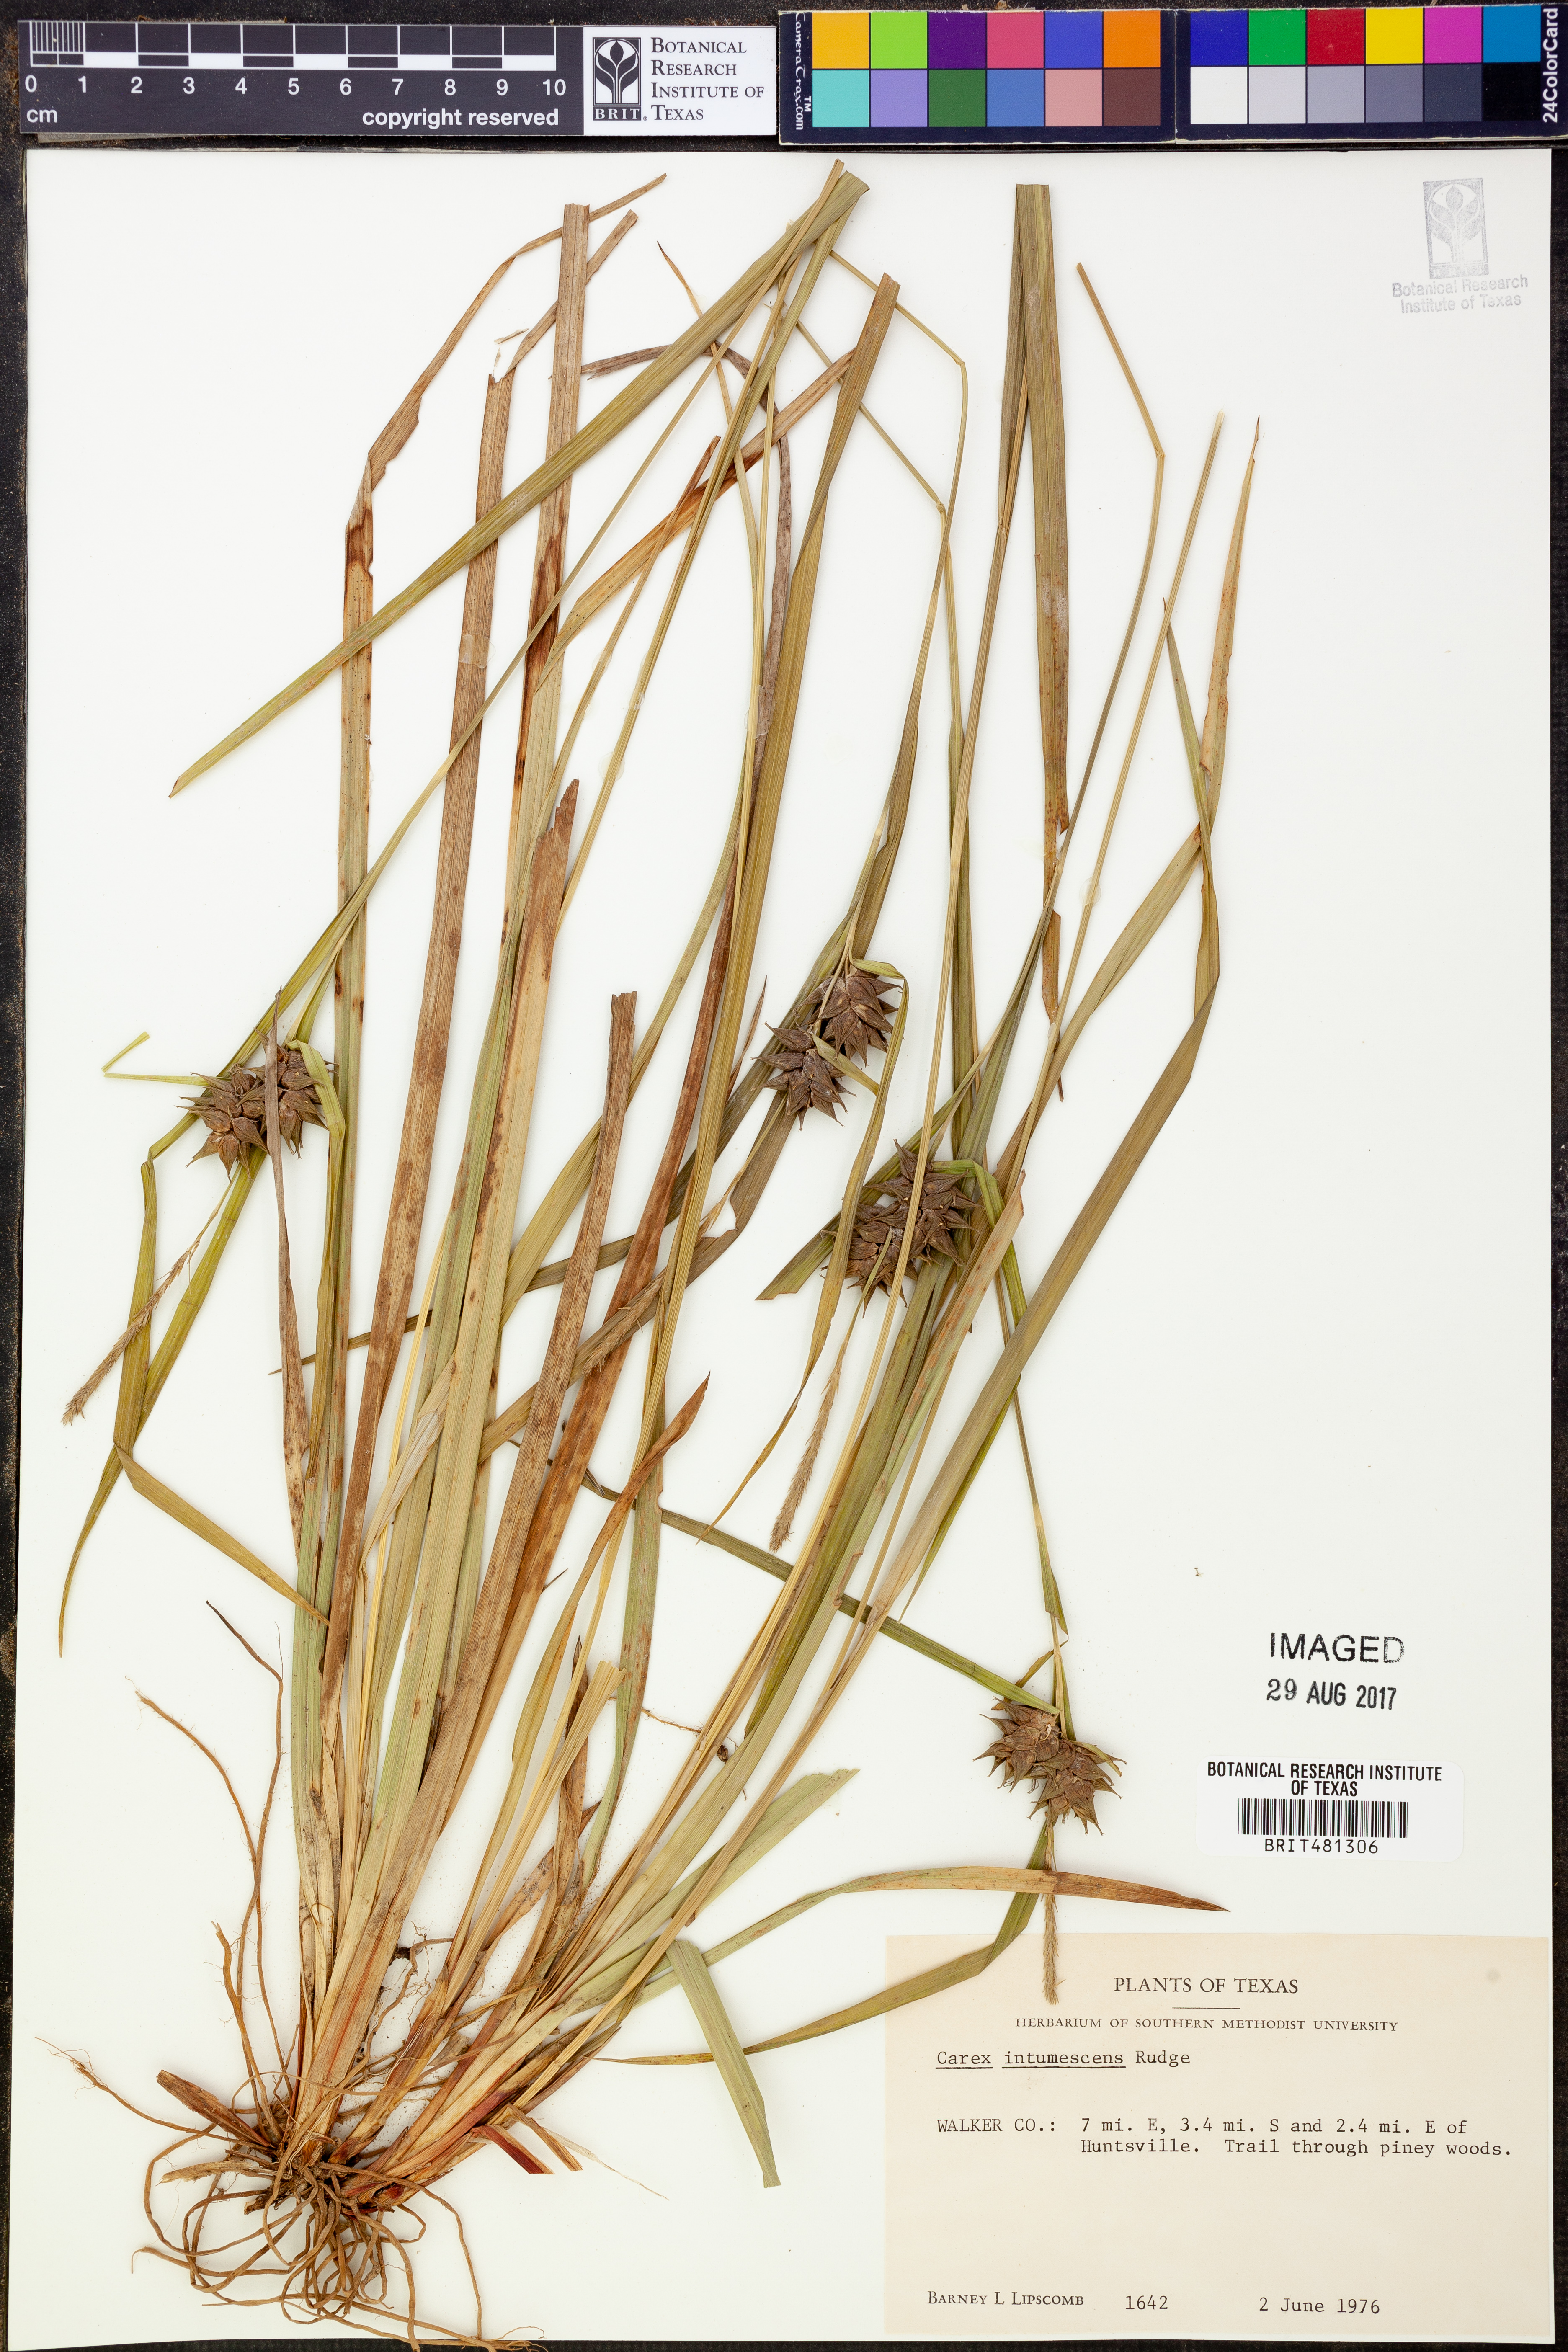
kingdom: Plantae
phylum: Tracheophyta
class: Liliopsida
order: Poales
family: Cyperaceae
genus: Carex
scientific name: Carex intumescens
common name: Greater bladder sedge
